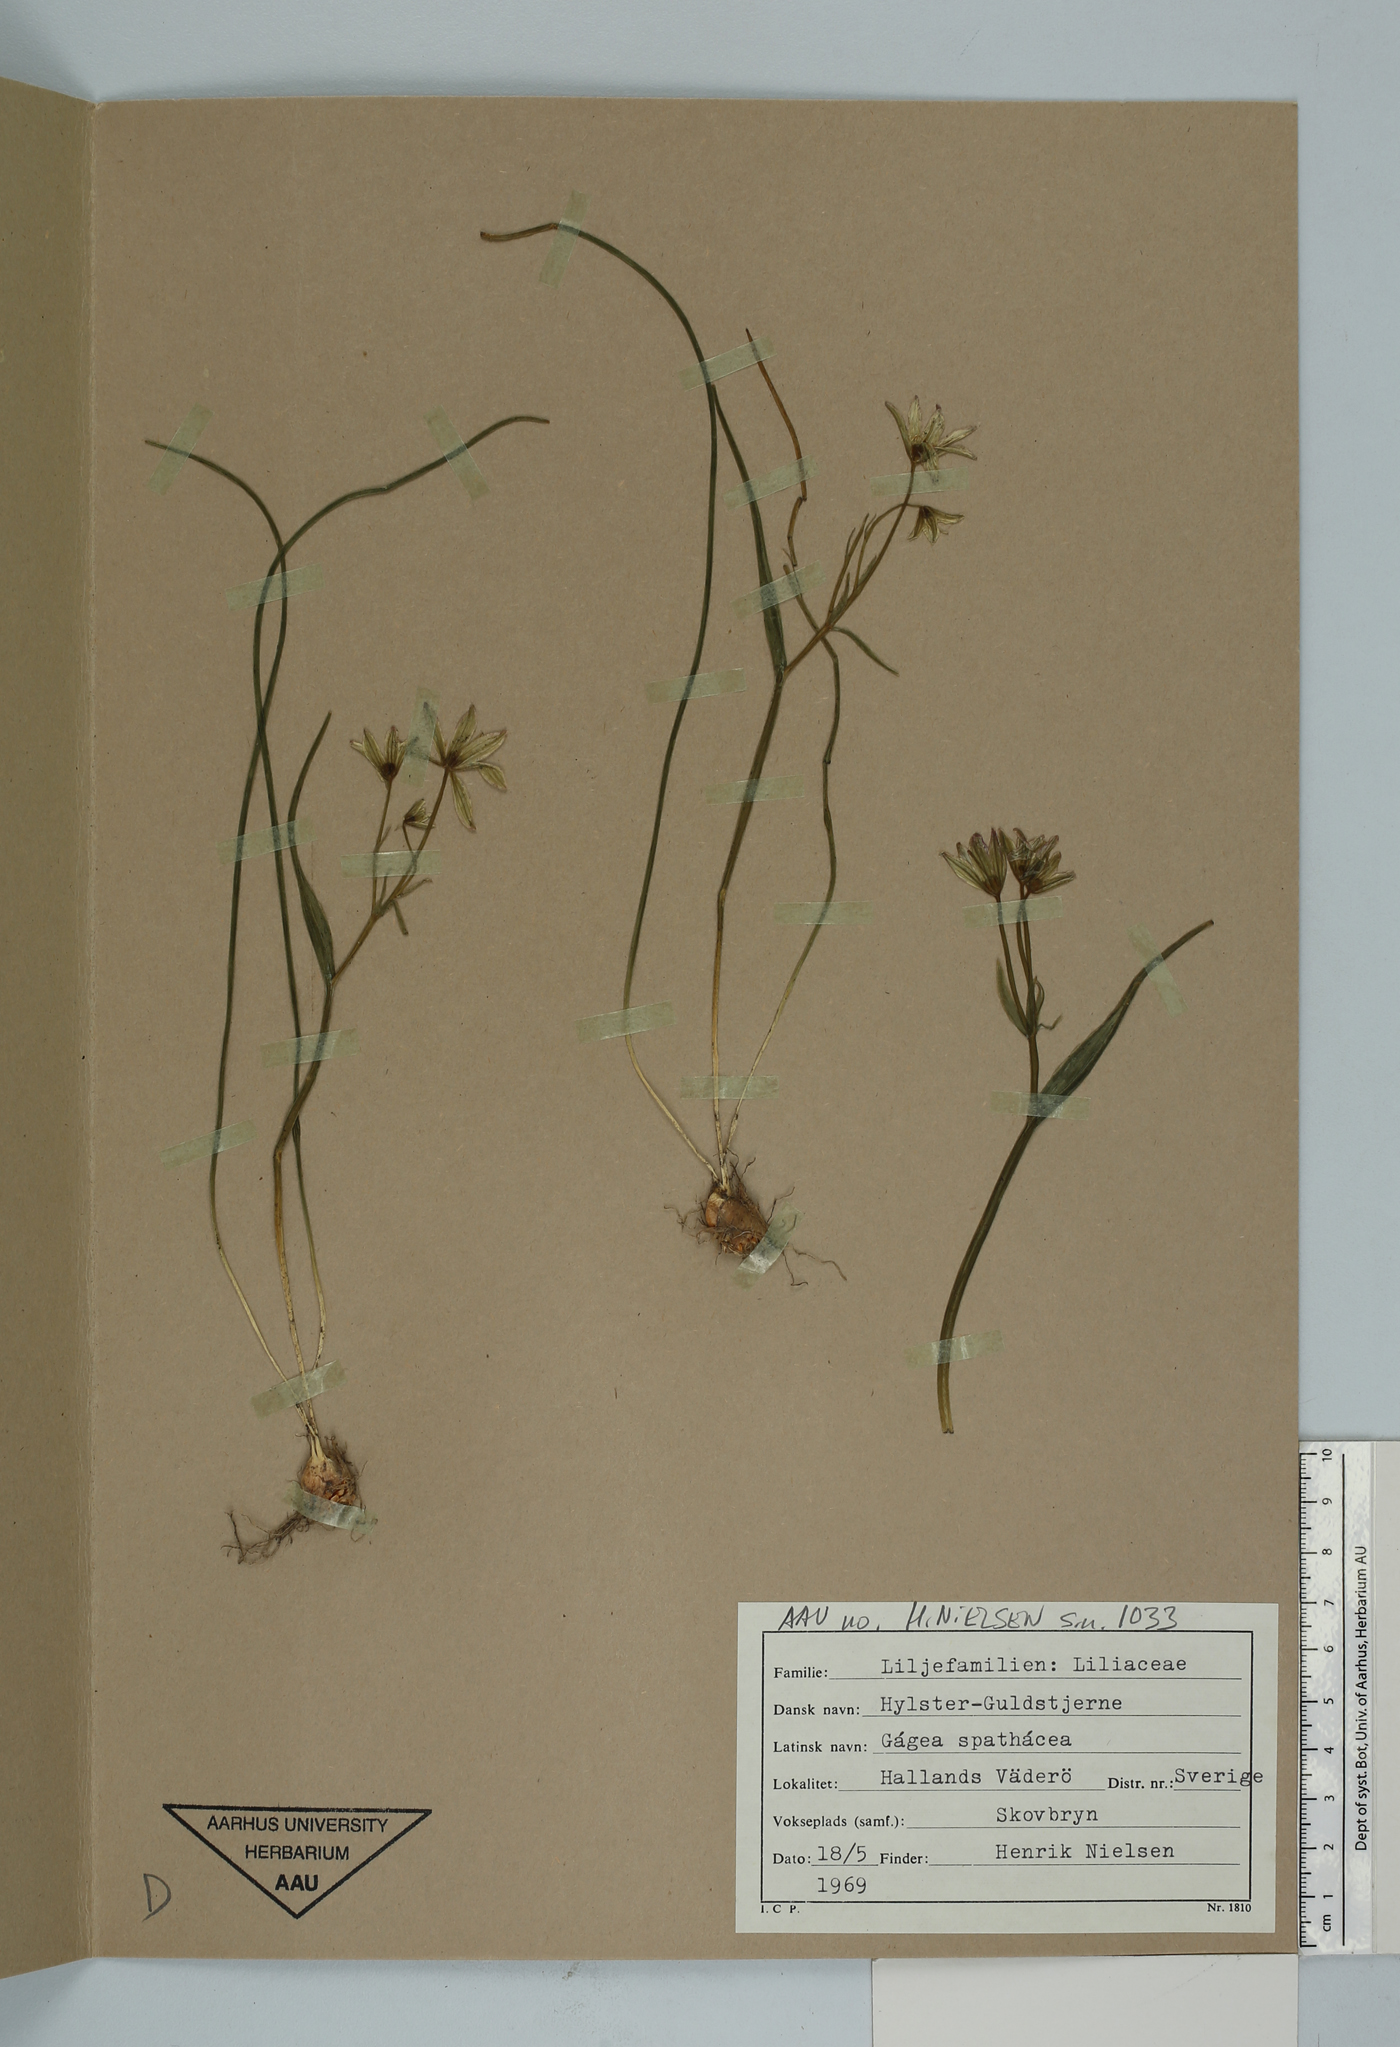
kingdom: Plantae
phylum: Tracheophyta
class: Liliopsida
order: Liliales
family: Liliaceae
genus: Gagea
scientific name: Gagea spathacea
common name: Belgian gagea
